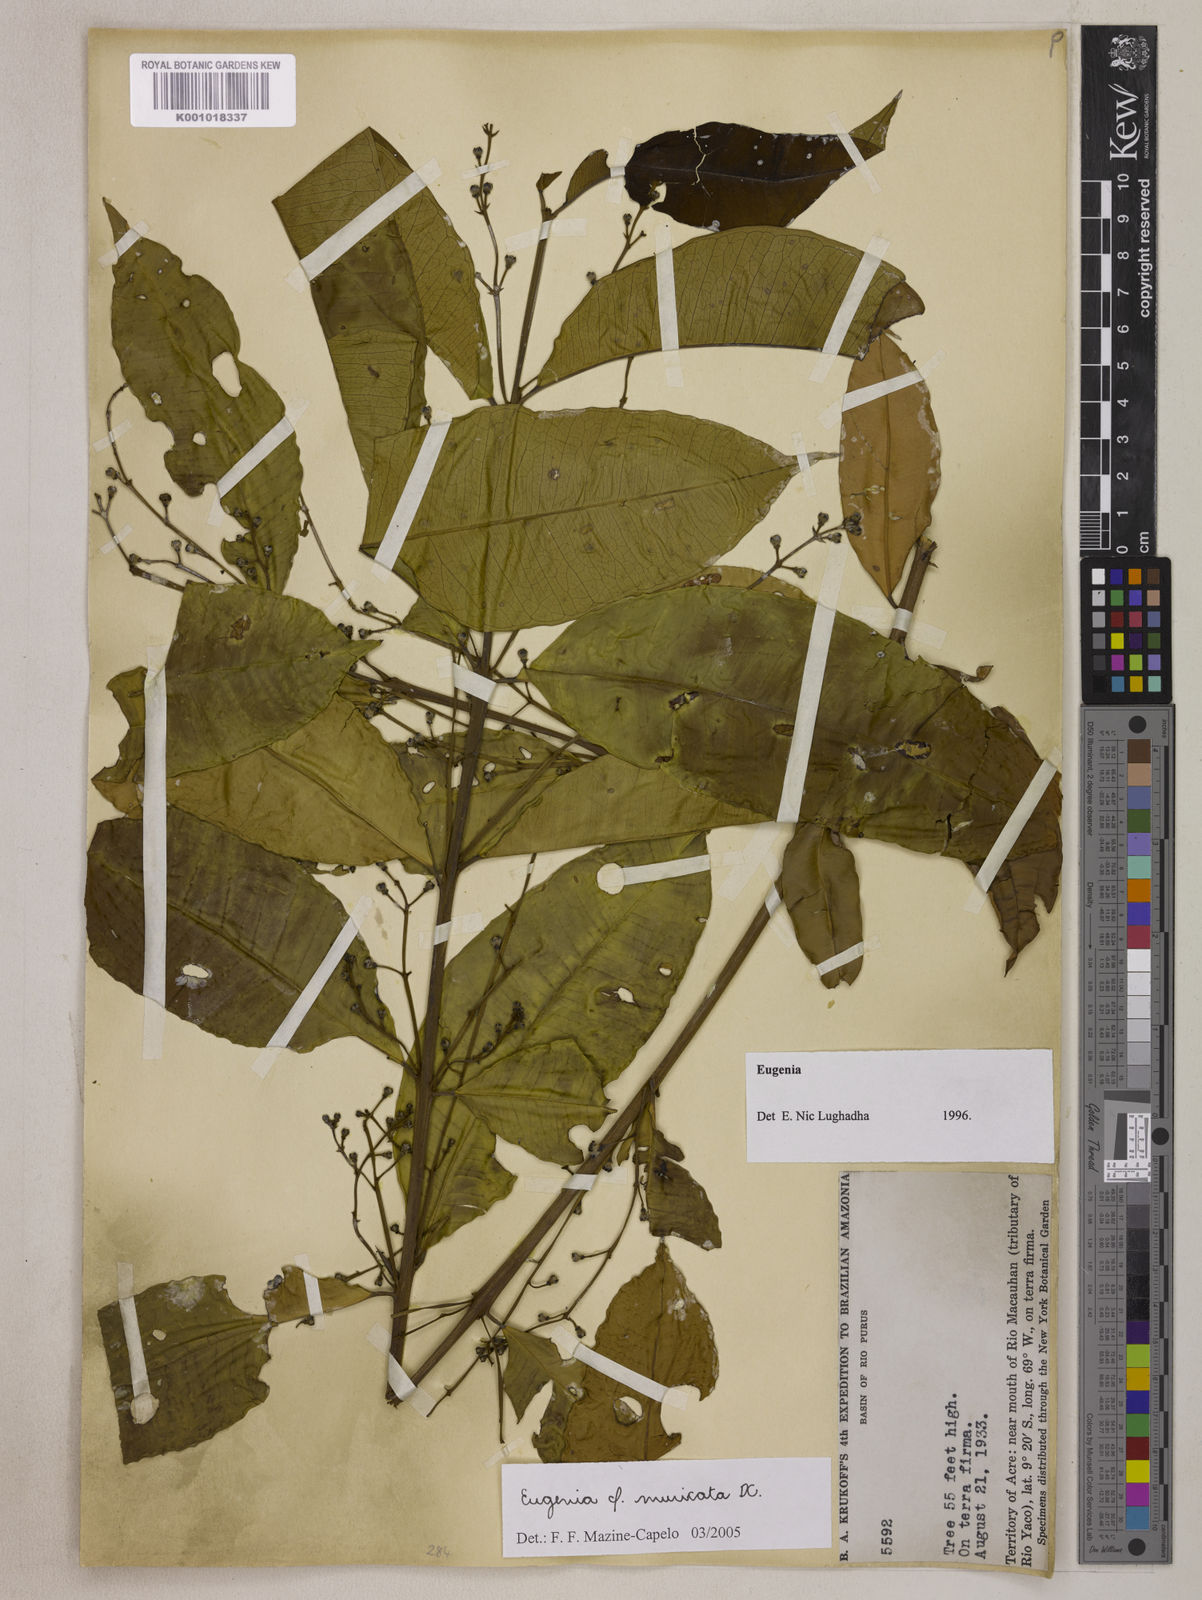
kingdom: Plantae
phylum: Tracheophyta
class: Magnoliopsida
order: Myrtales
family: Myrtaceae
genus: Eugenia
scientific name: Eugenia muricata
